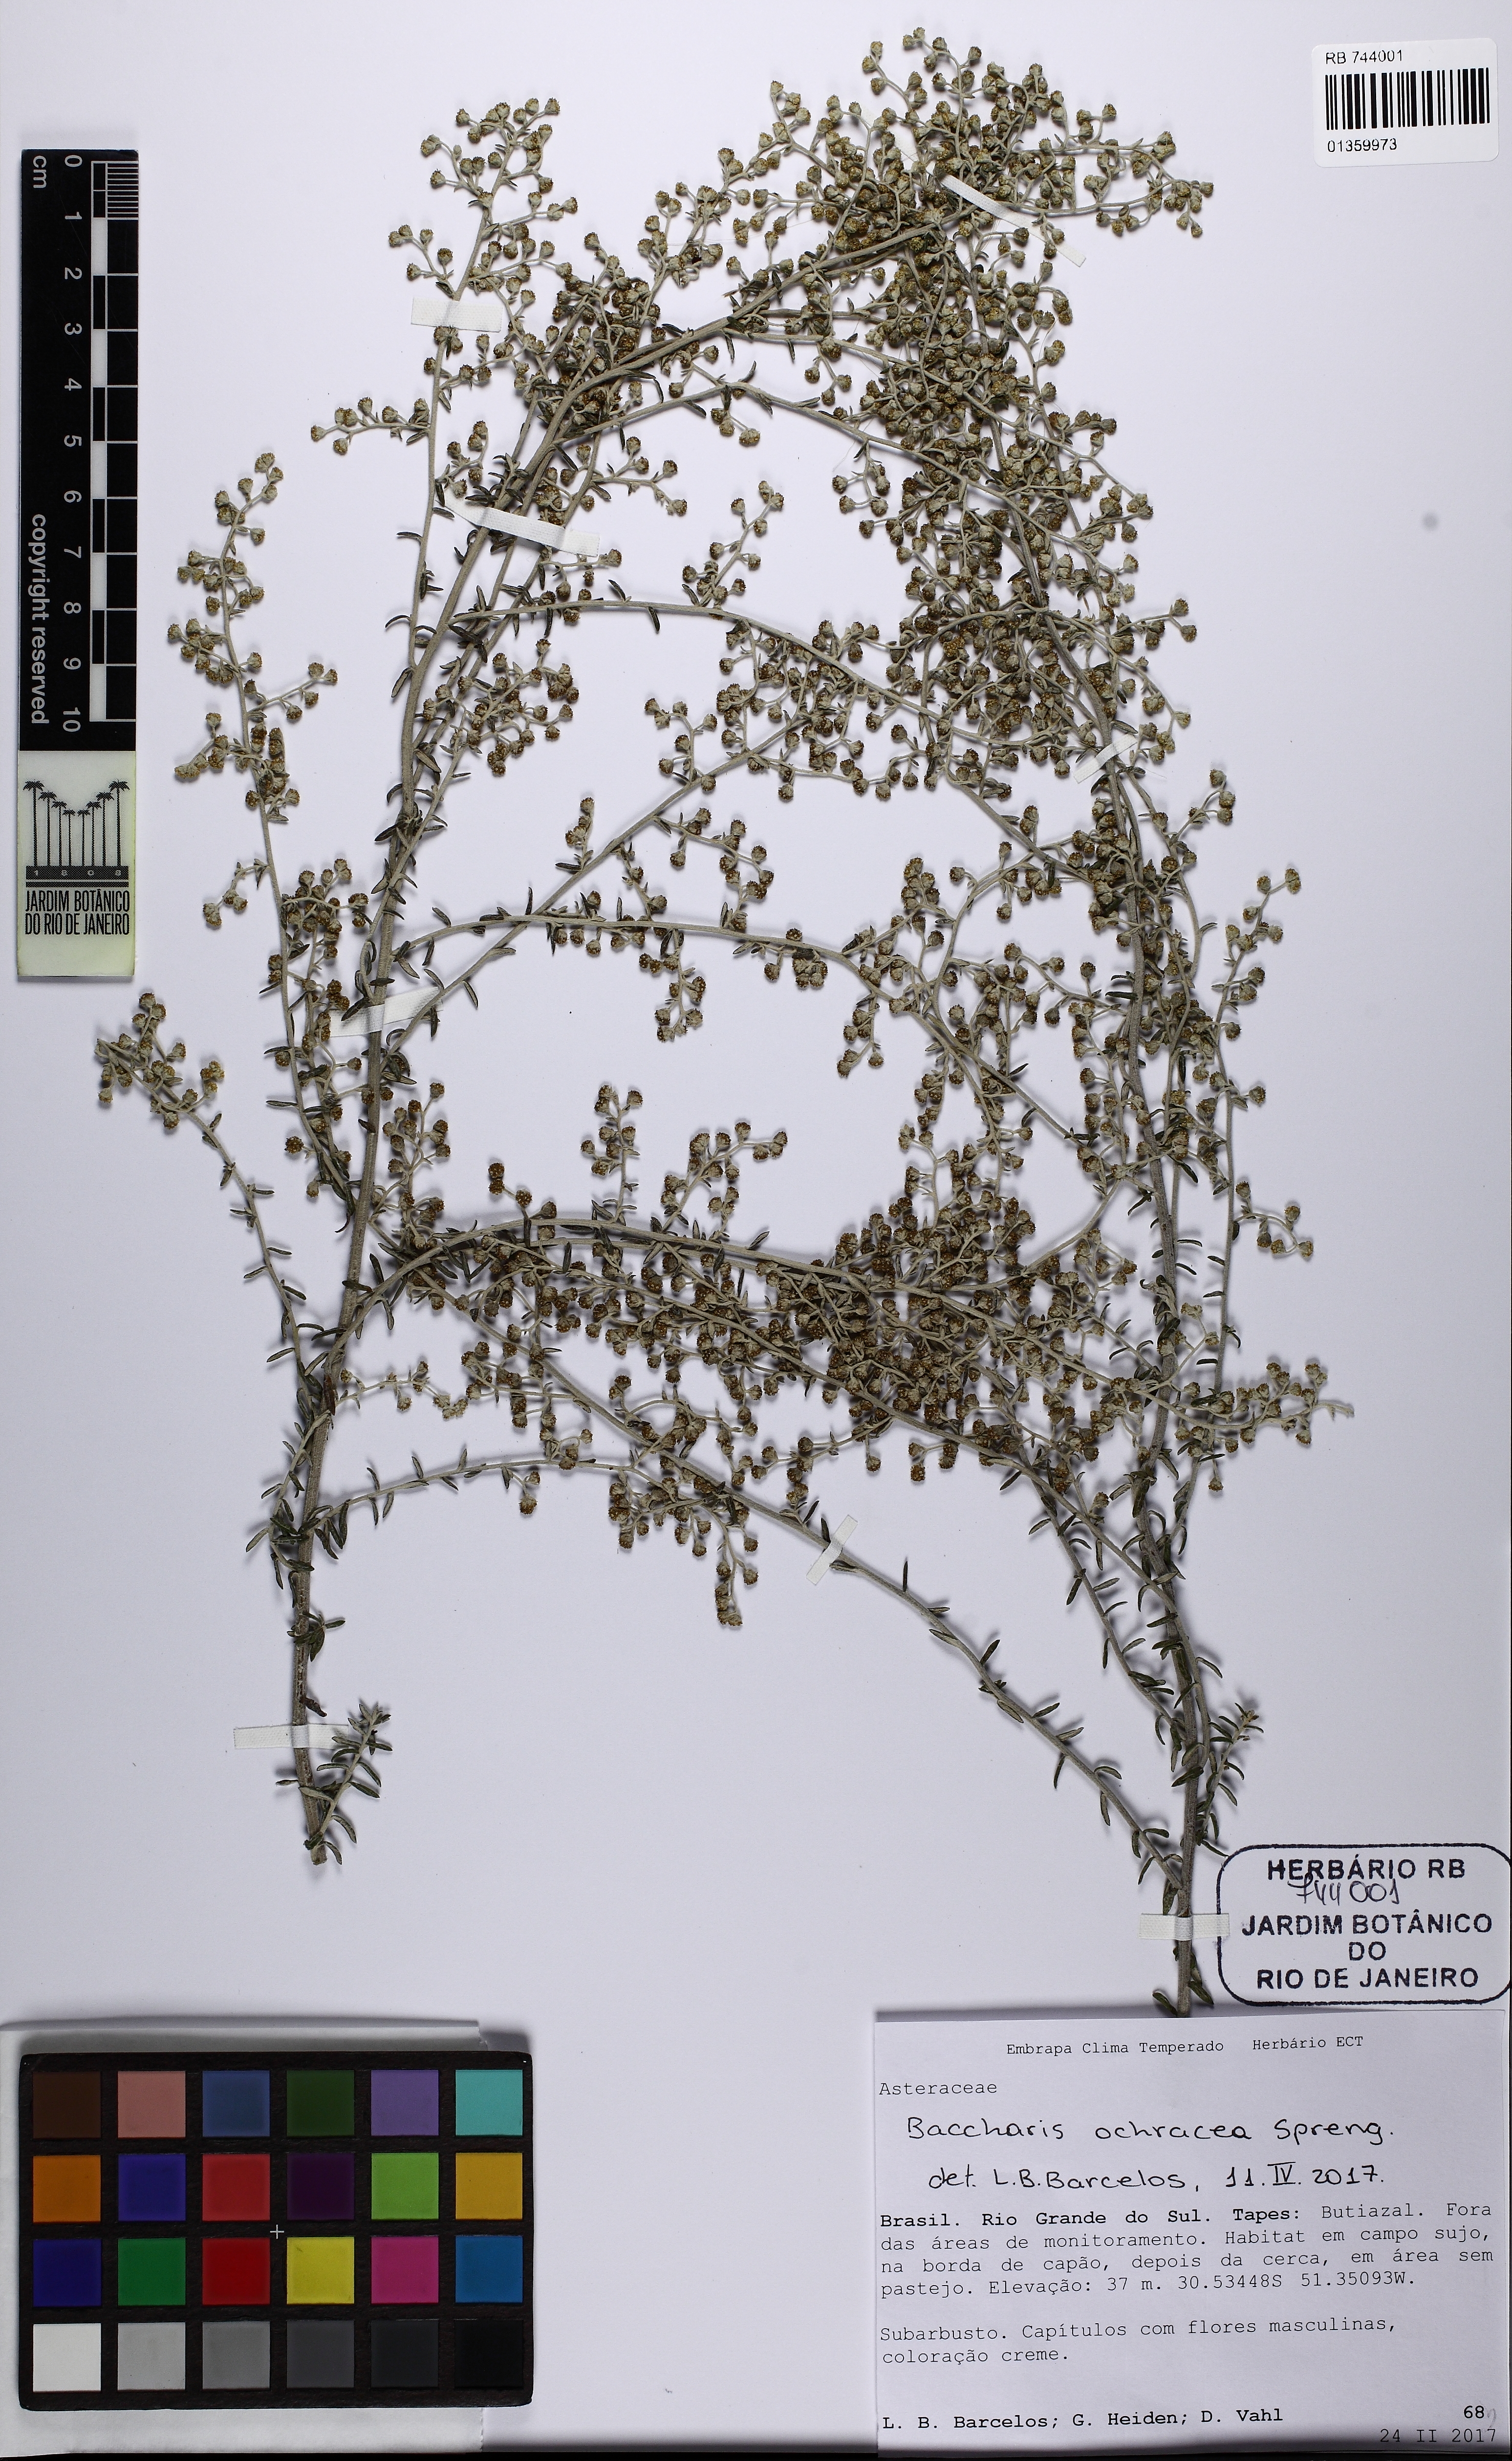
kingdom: Plantae
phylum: Tracheophyta
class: Magnoliopsida
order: Asterales
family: Asteraceae
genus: Baccharis
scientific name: Baccharis ochracea
